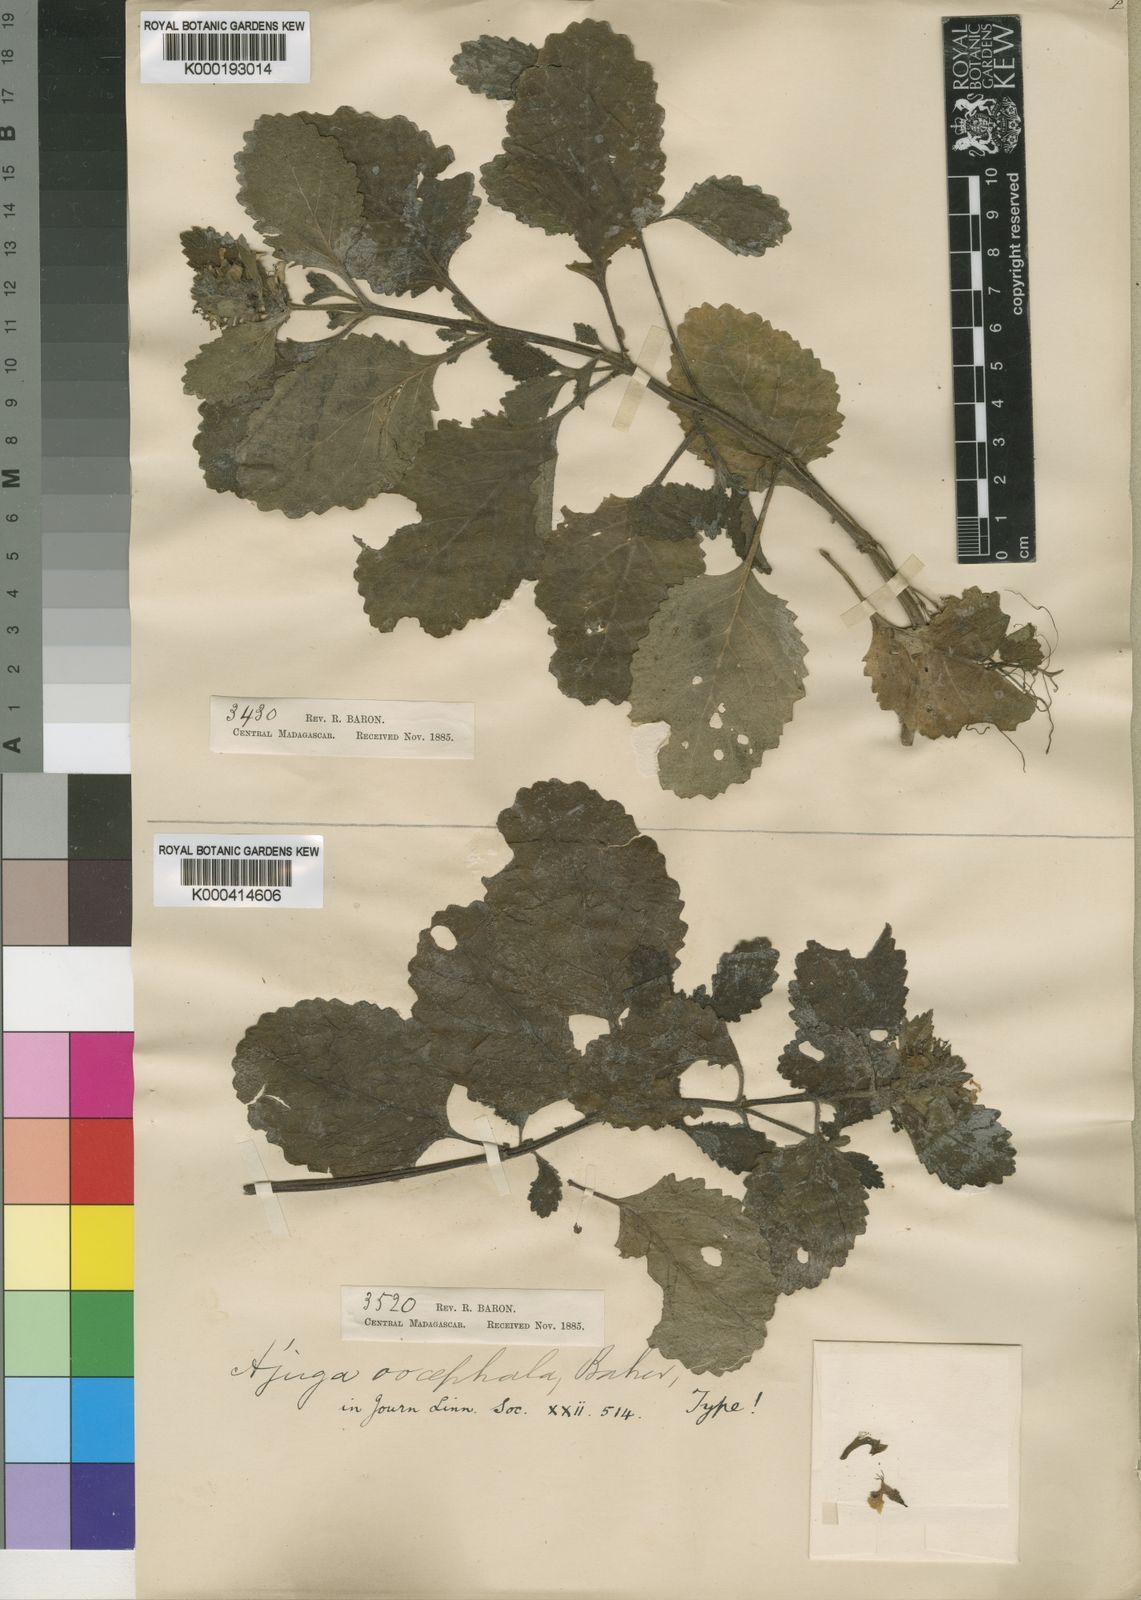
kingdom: Plantae
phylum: Tracheophyta
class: Magnoliopsida
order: Lamiales
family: Lamiaceae
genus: Ajuga
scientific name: Ajuga oocephala
